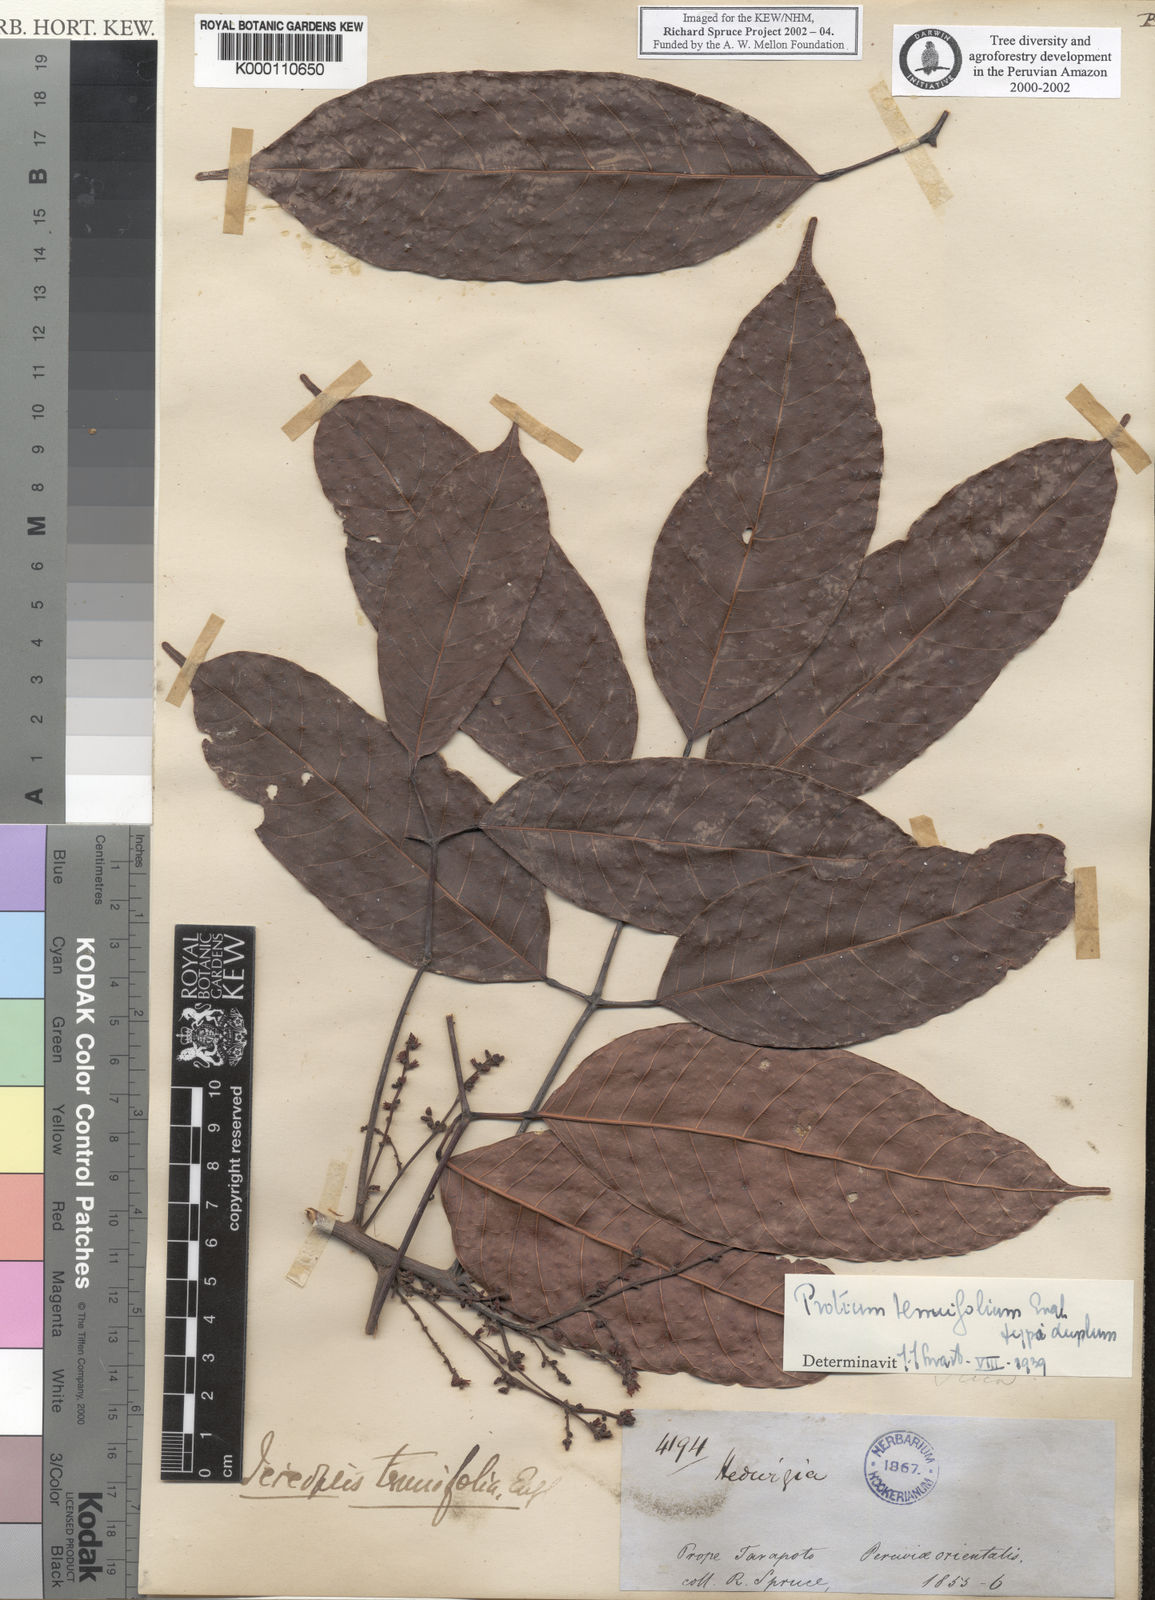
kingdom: Plantae
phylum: Tracheophyta
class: Magnoliopsida
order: Sapindales
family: Burseraceae
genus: Protium
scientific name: Protium tenuifolium
